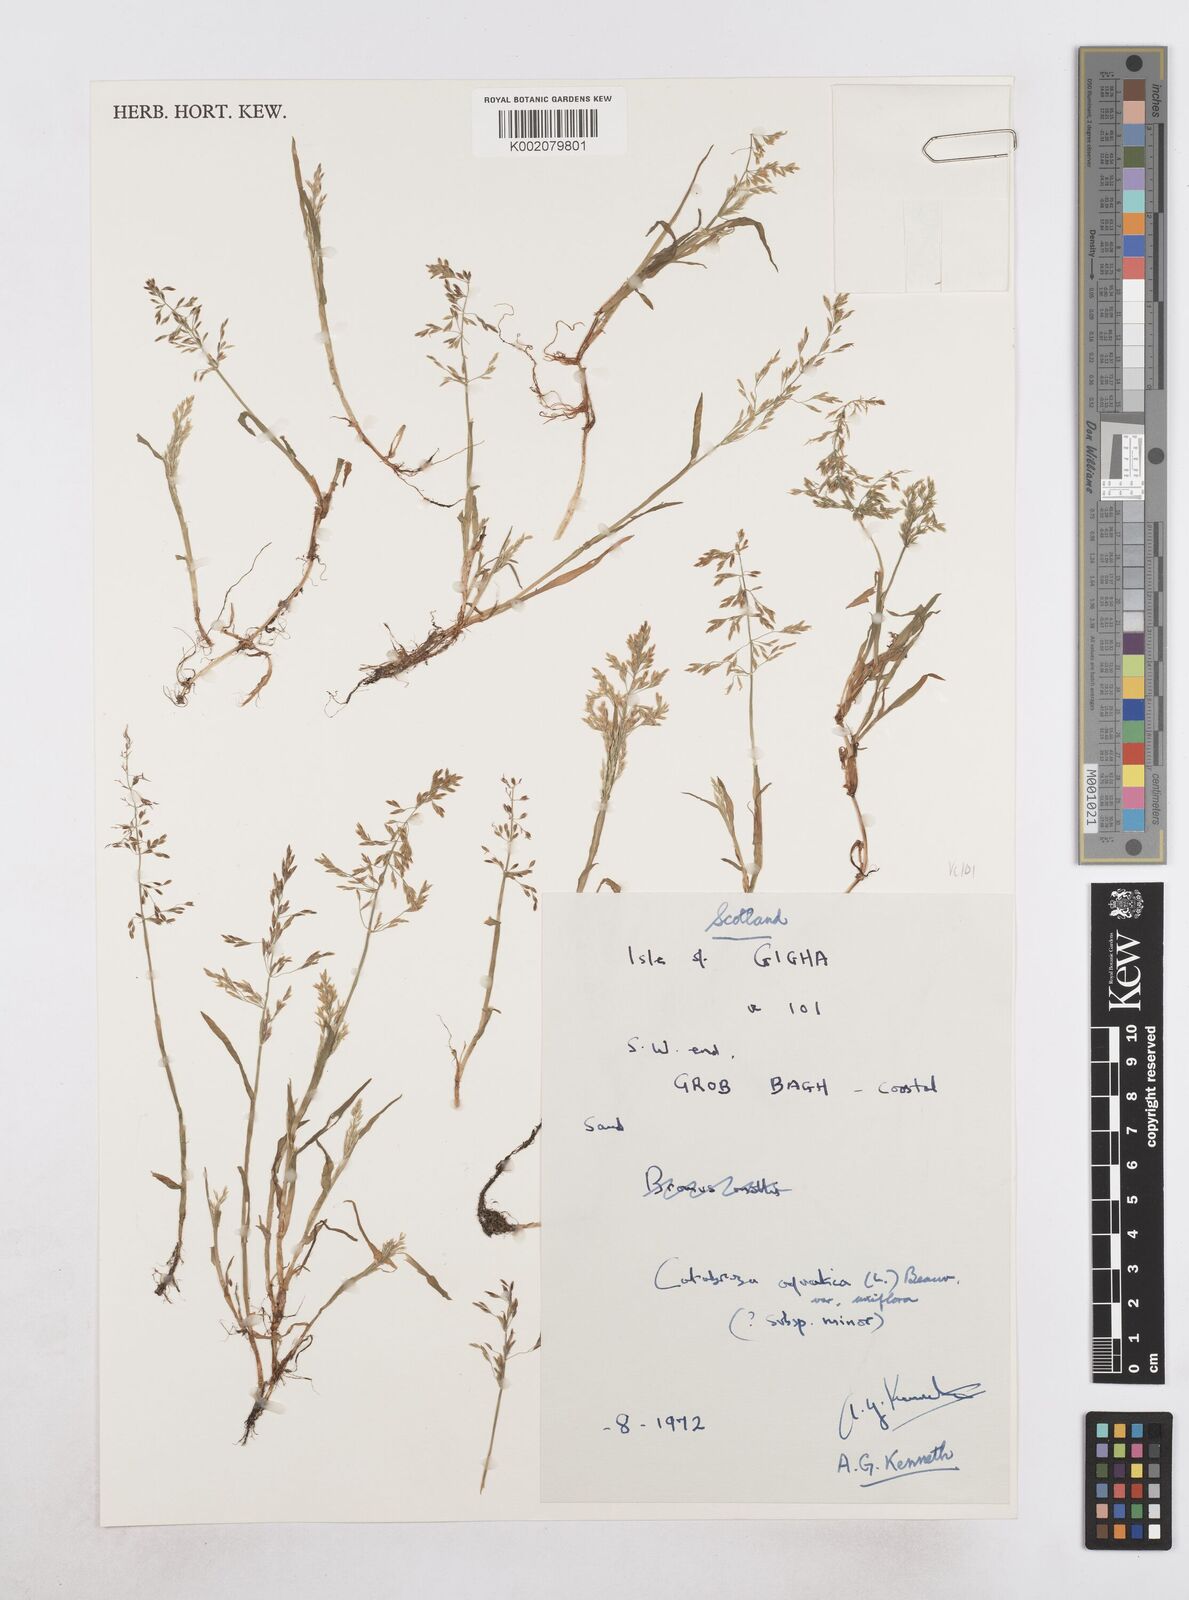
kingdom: Plantae
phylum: Tracheophyta
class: Liliopsida
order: Poales
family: Poaceae
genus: Catabrosa
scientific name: Catabrosa aquatica
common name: Whorl-grass
